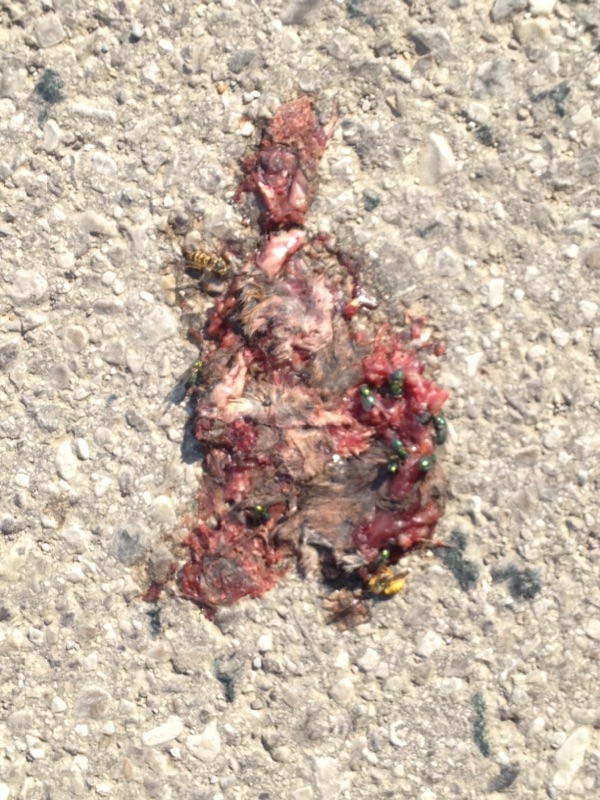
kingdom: Animalia
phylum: Chordata
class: Mammalia
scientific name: Mammalia
